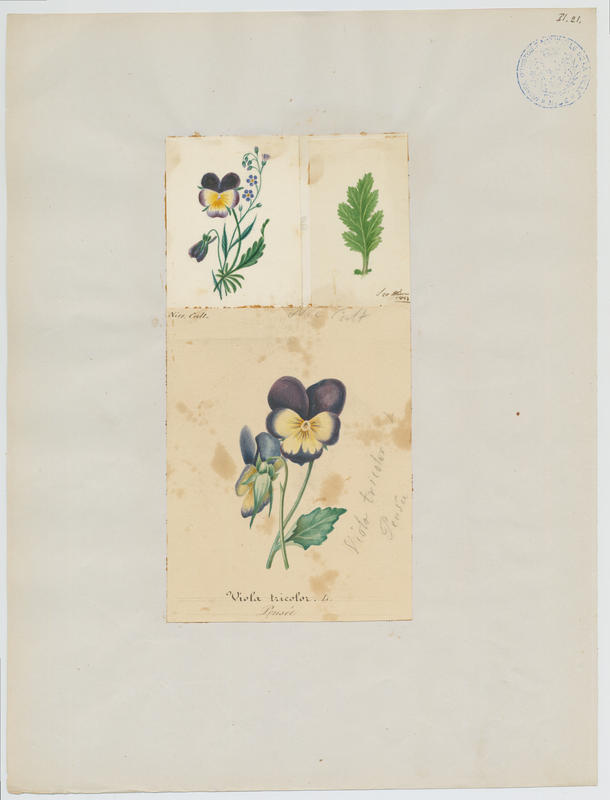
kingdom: Plantae
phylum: Tracheophyta
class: Magnoliopsida
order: Malpighiales
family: Violaceae
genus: Viola
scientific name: Viola tricolor
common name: Pansy
